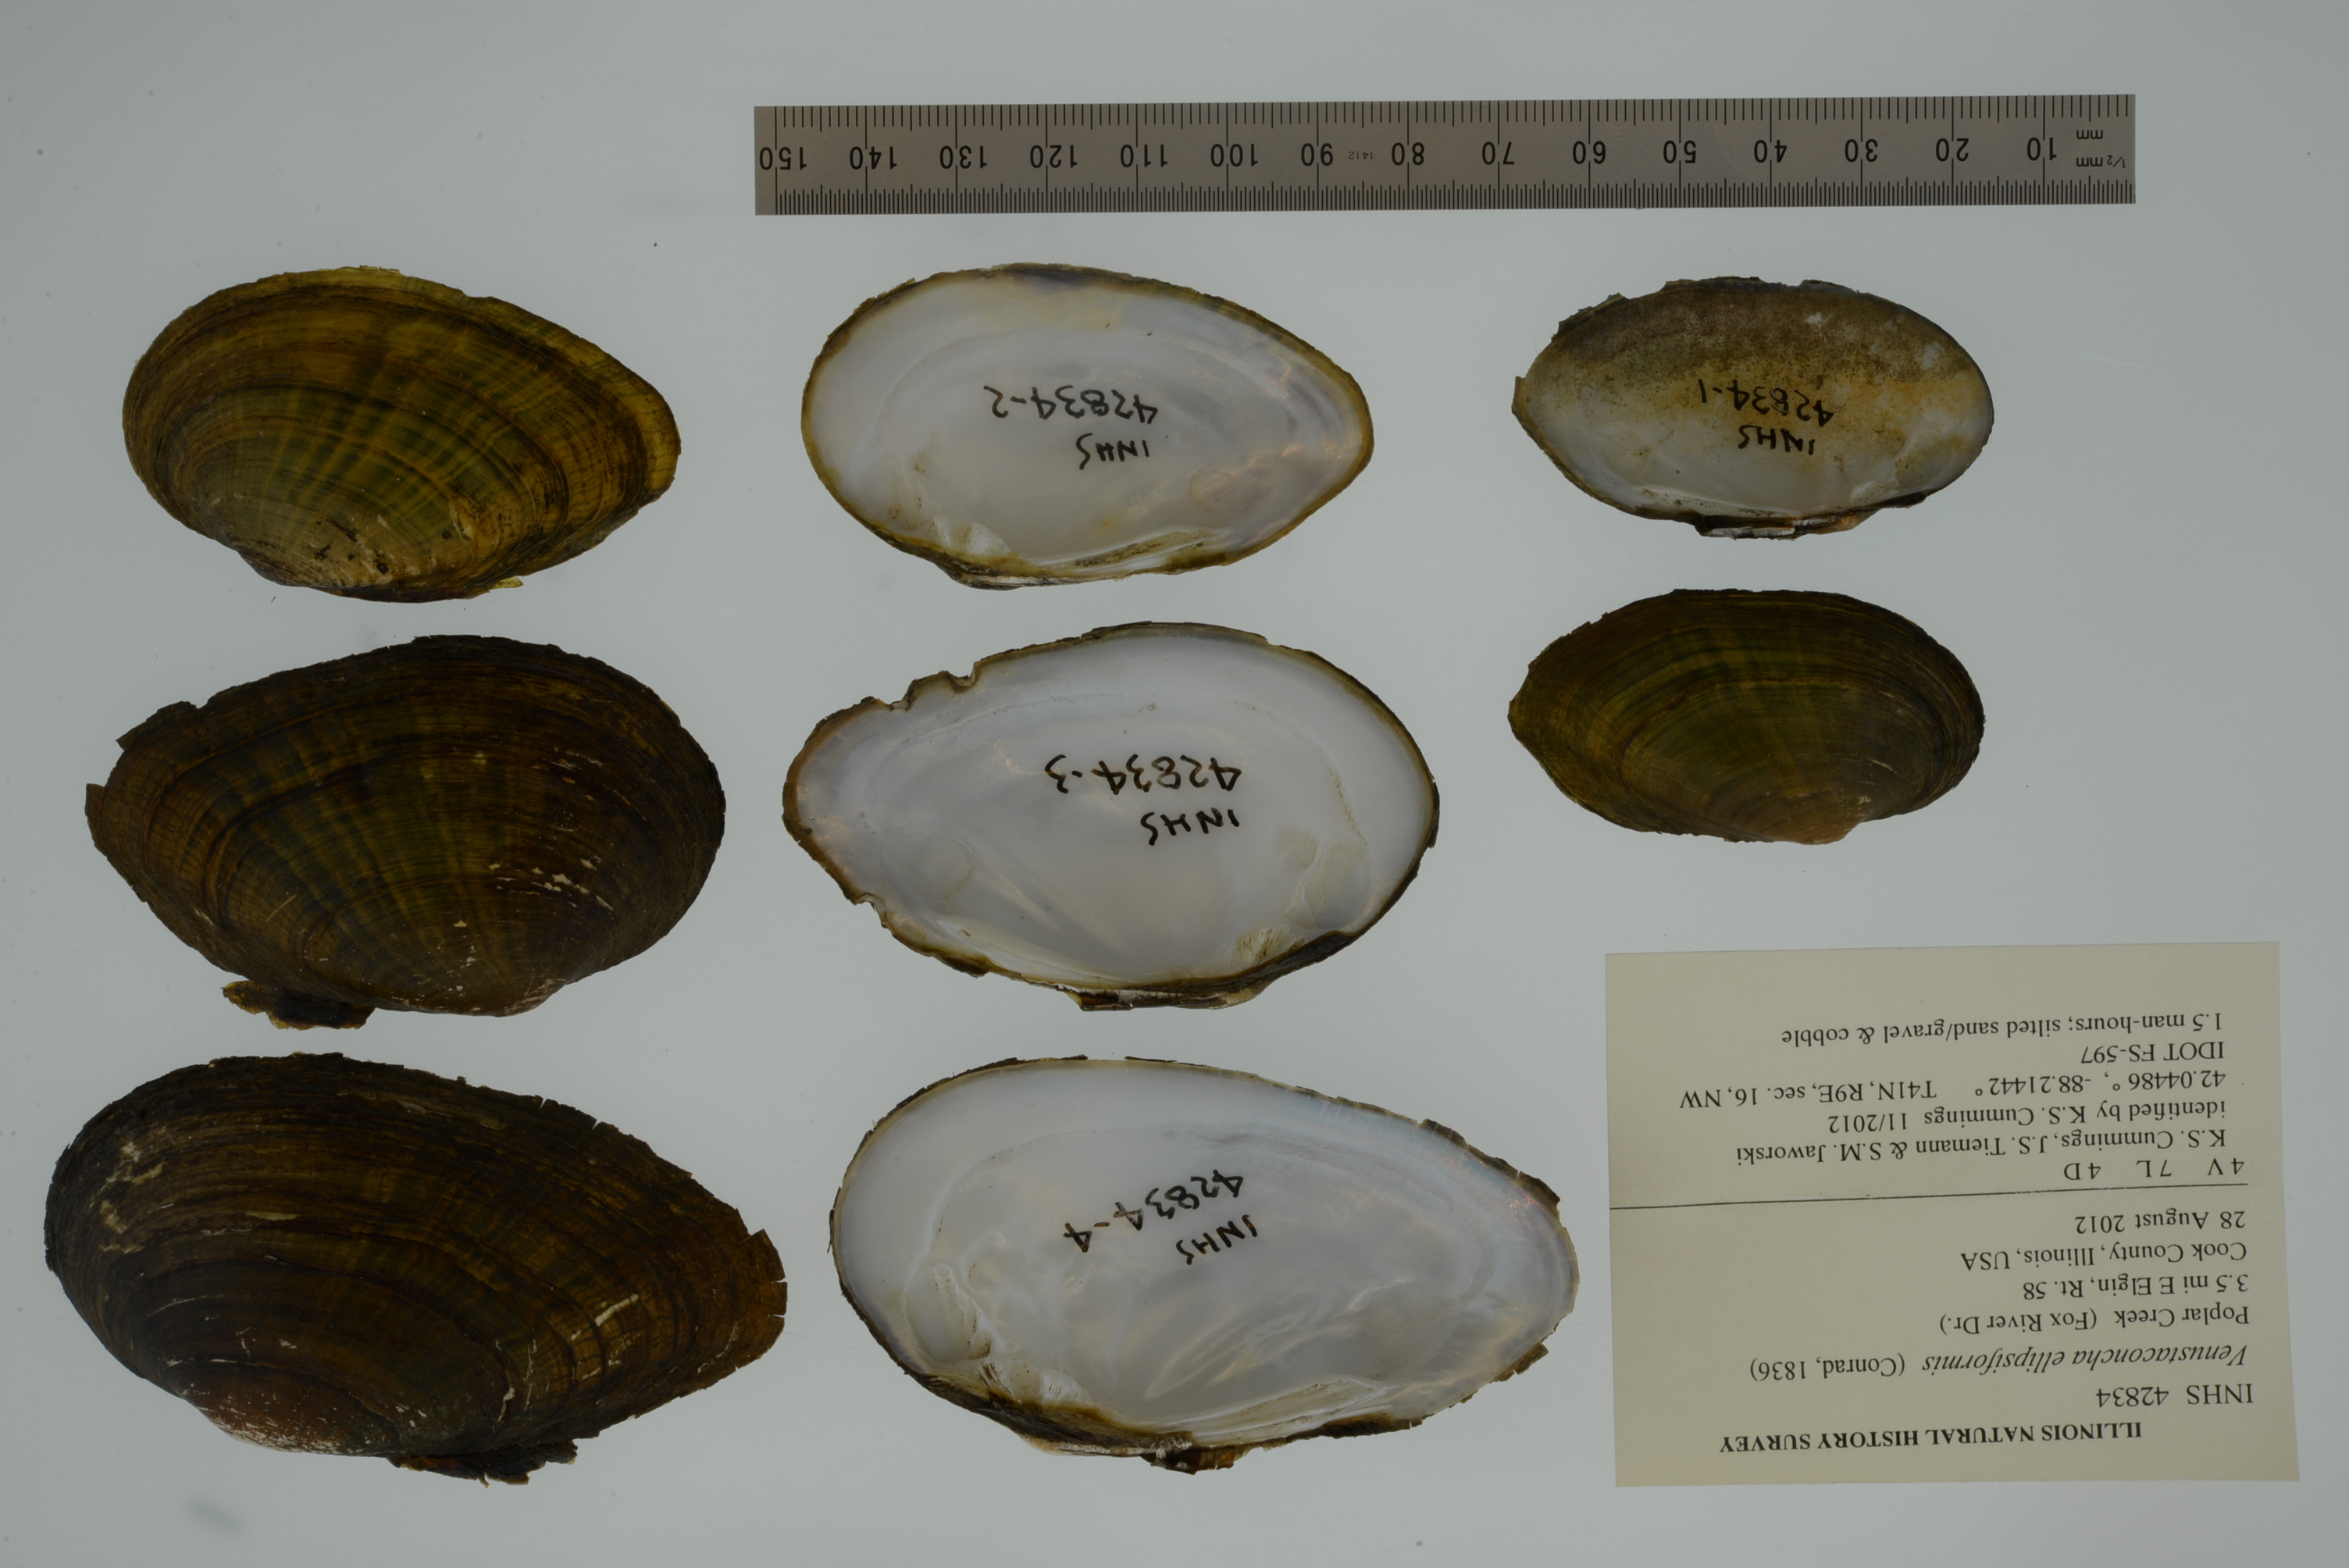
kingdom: Animalia
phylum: Mollusca
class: Bivalvia
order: Unionida
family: Unionidae
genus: Venustaconcha
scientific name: Venustaconcha ellipsiformis
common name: Ellipse
